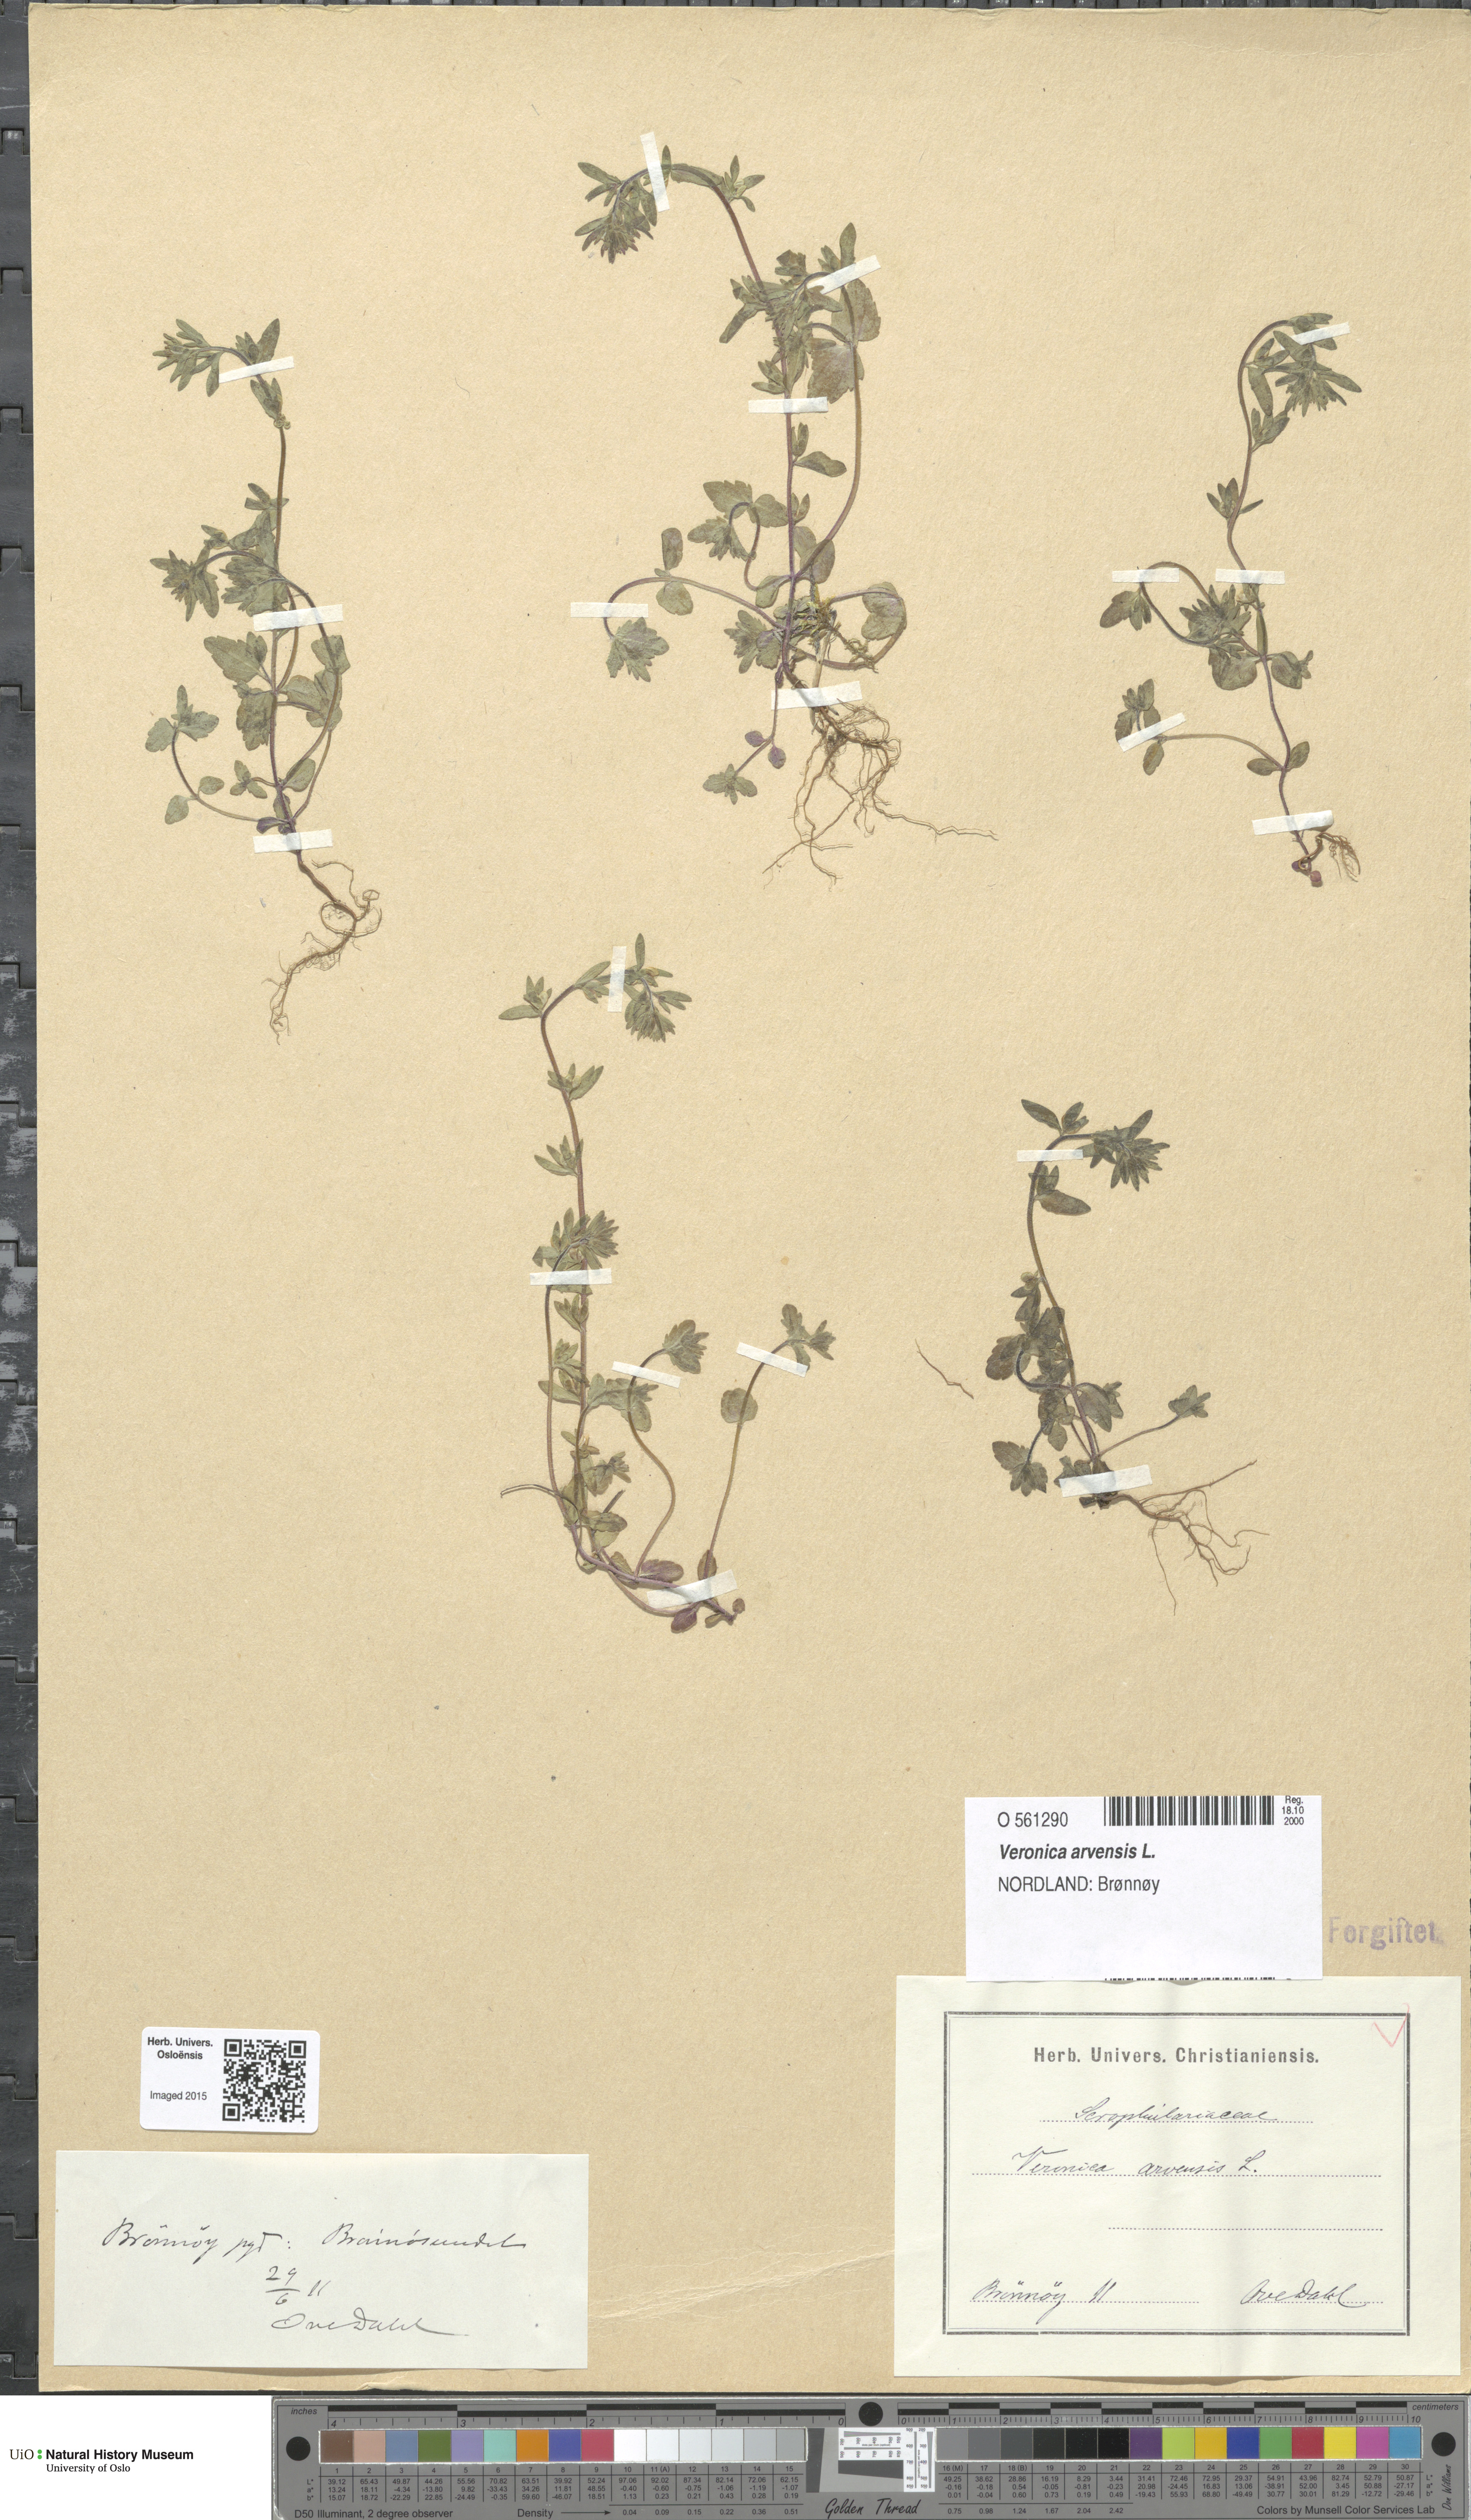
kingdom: Plantae
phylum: Tracheophyta
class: Magnoliopsida
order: Lamiales
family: Plantaginaceae
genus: Veronica
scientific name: Veronica arvensis
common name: Corn speedwell
